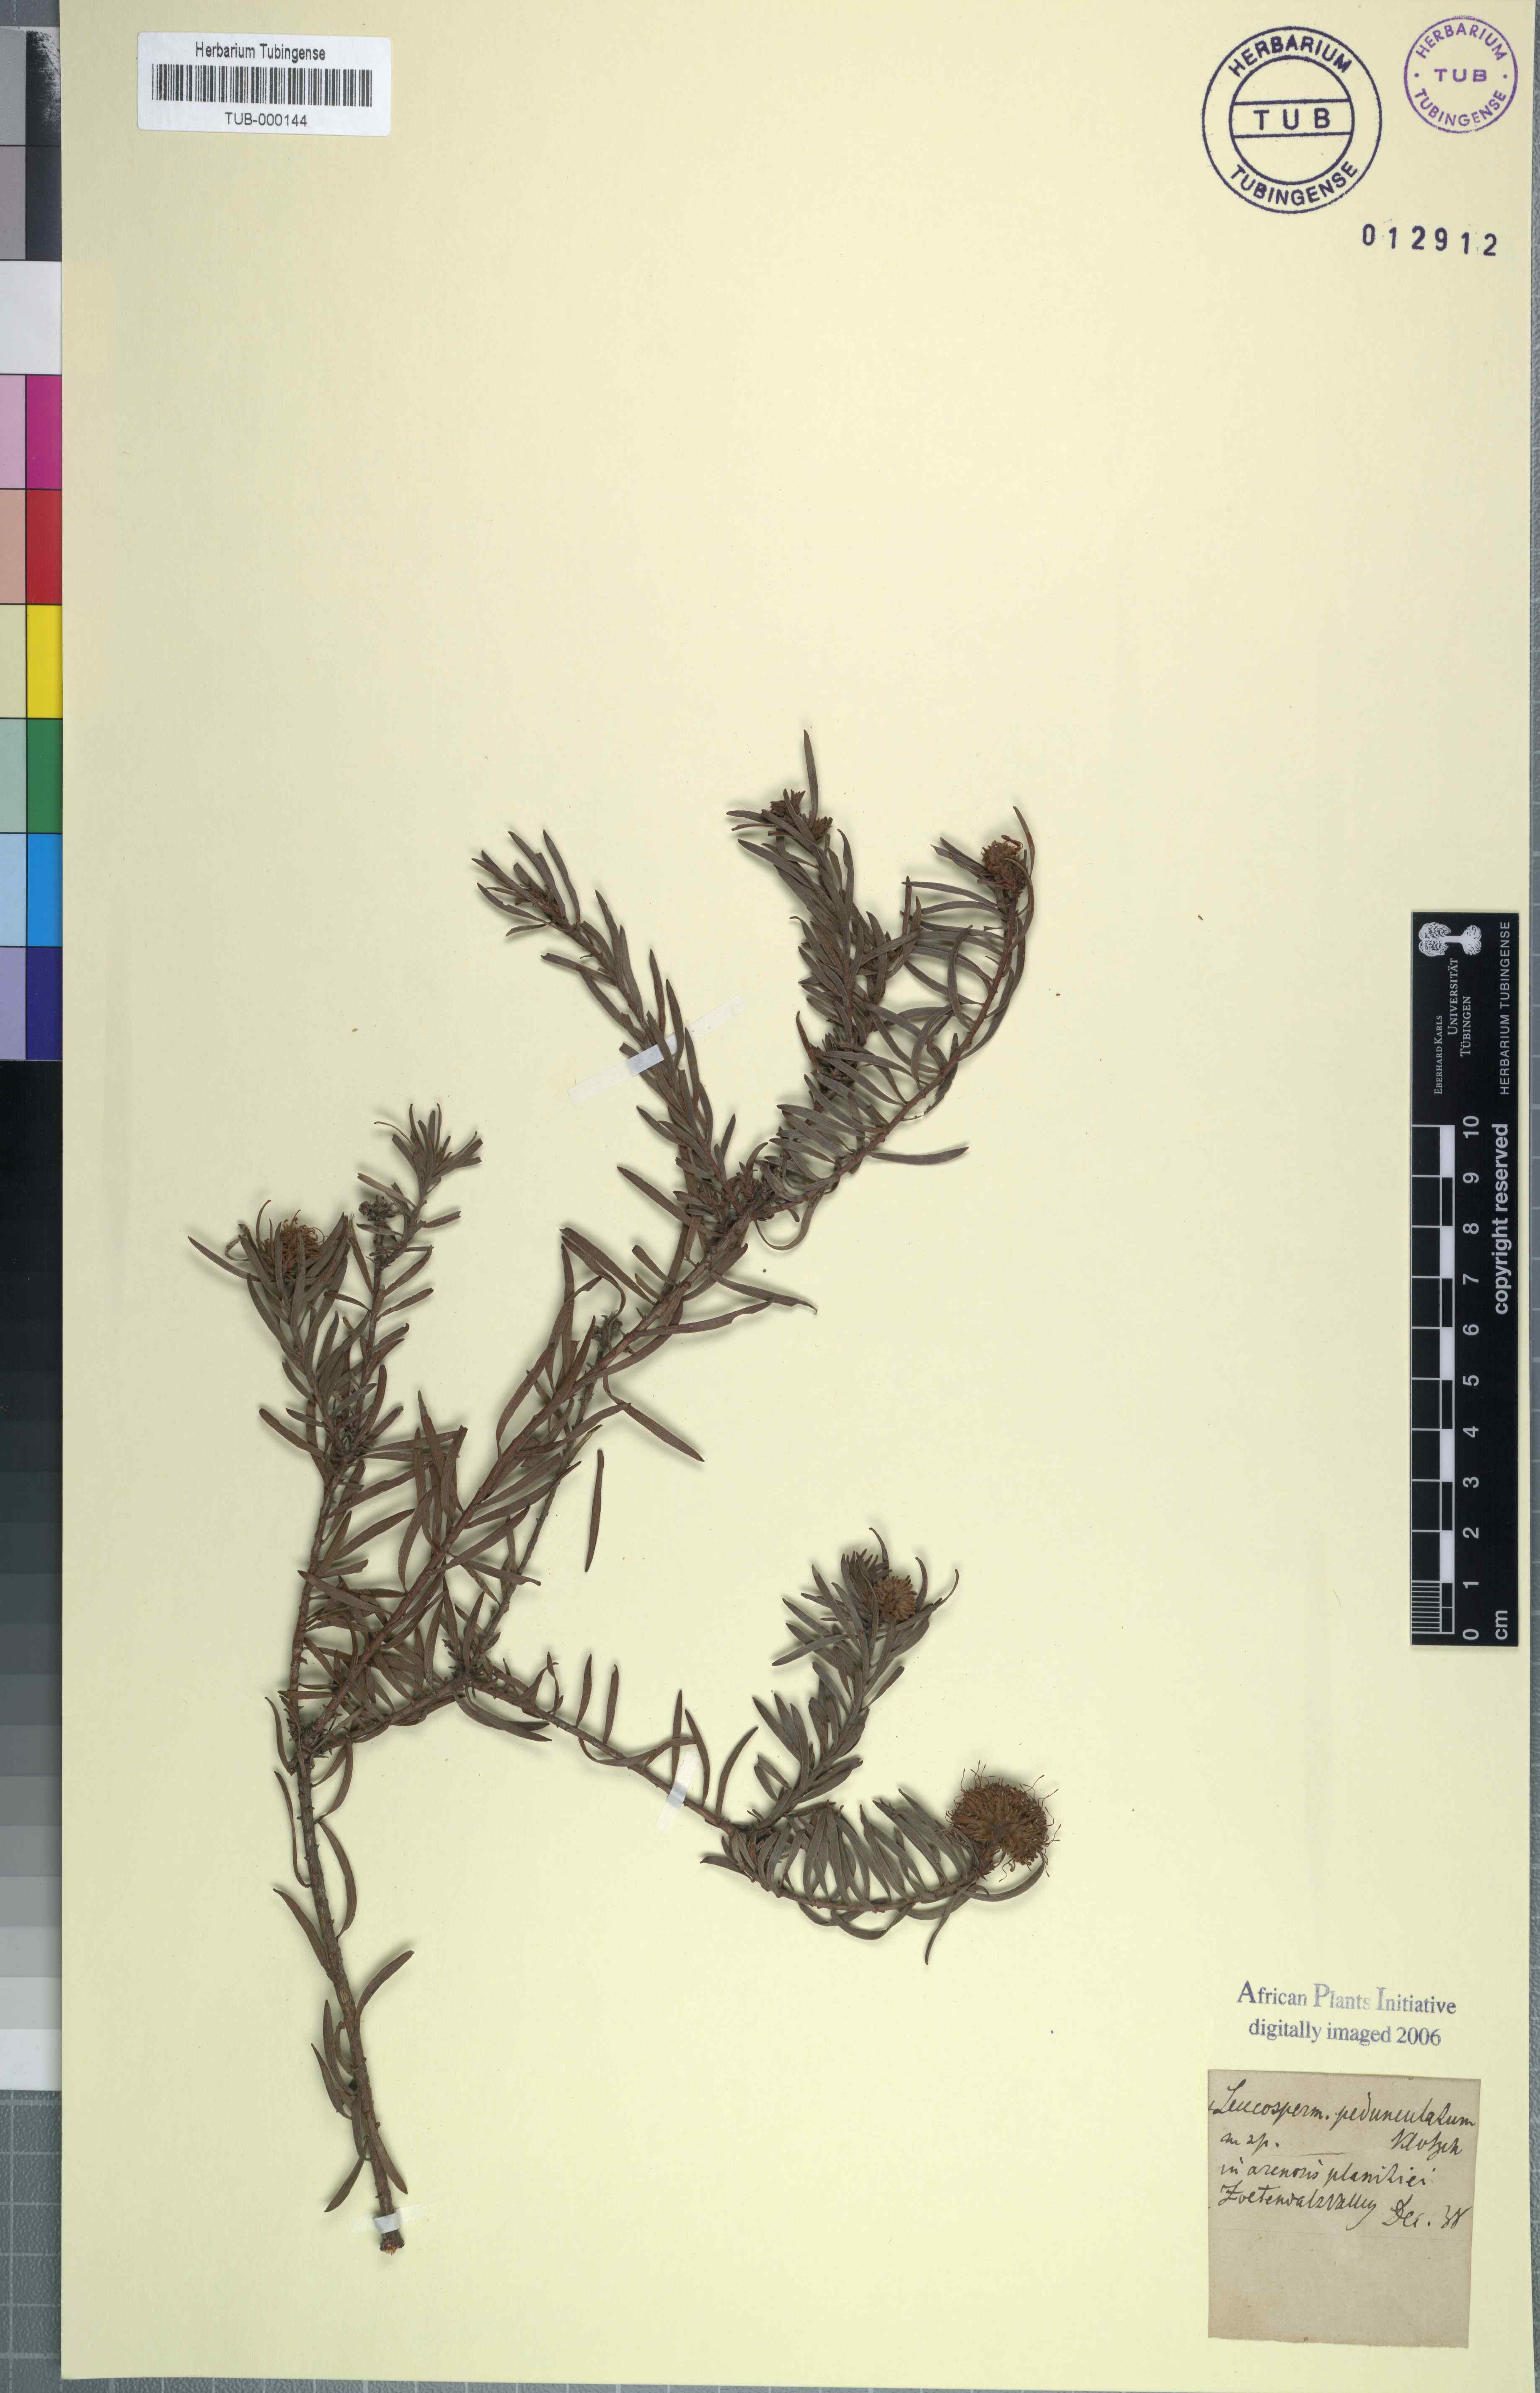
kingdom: Plantae
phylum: Tracheophyta
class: Magnoliopsida
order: Proteales
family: Proteaceae
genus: Leucospermum
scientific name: Leucospermum pedunculatum
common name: White-trailing pincushion
